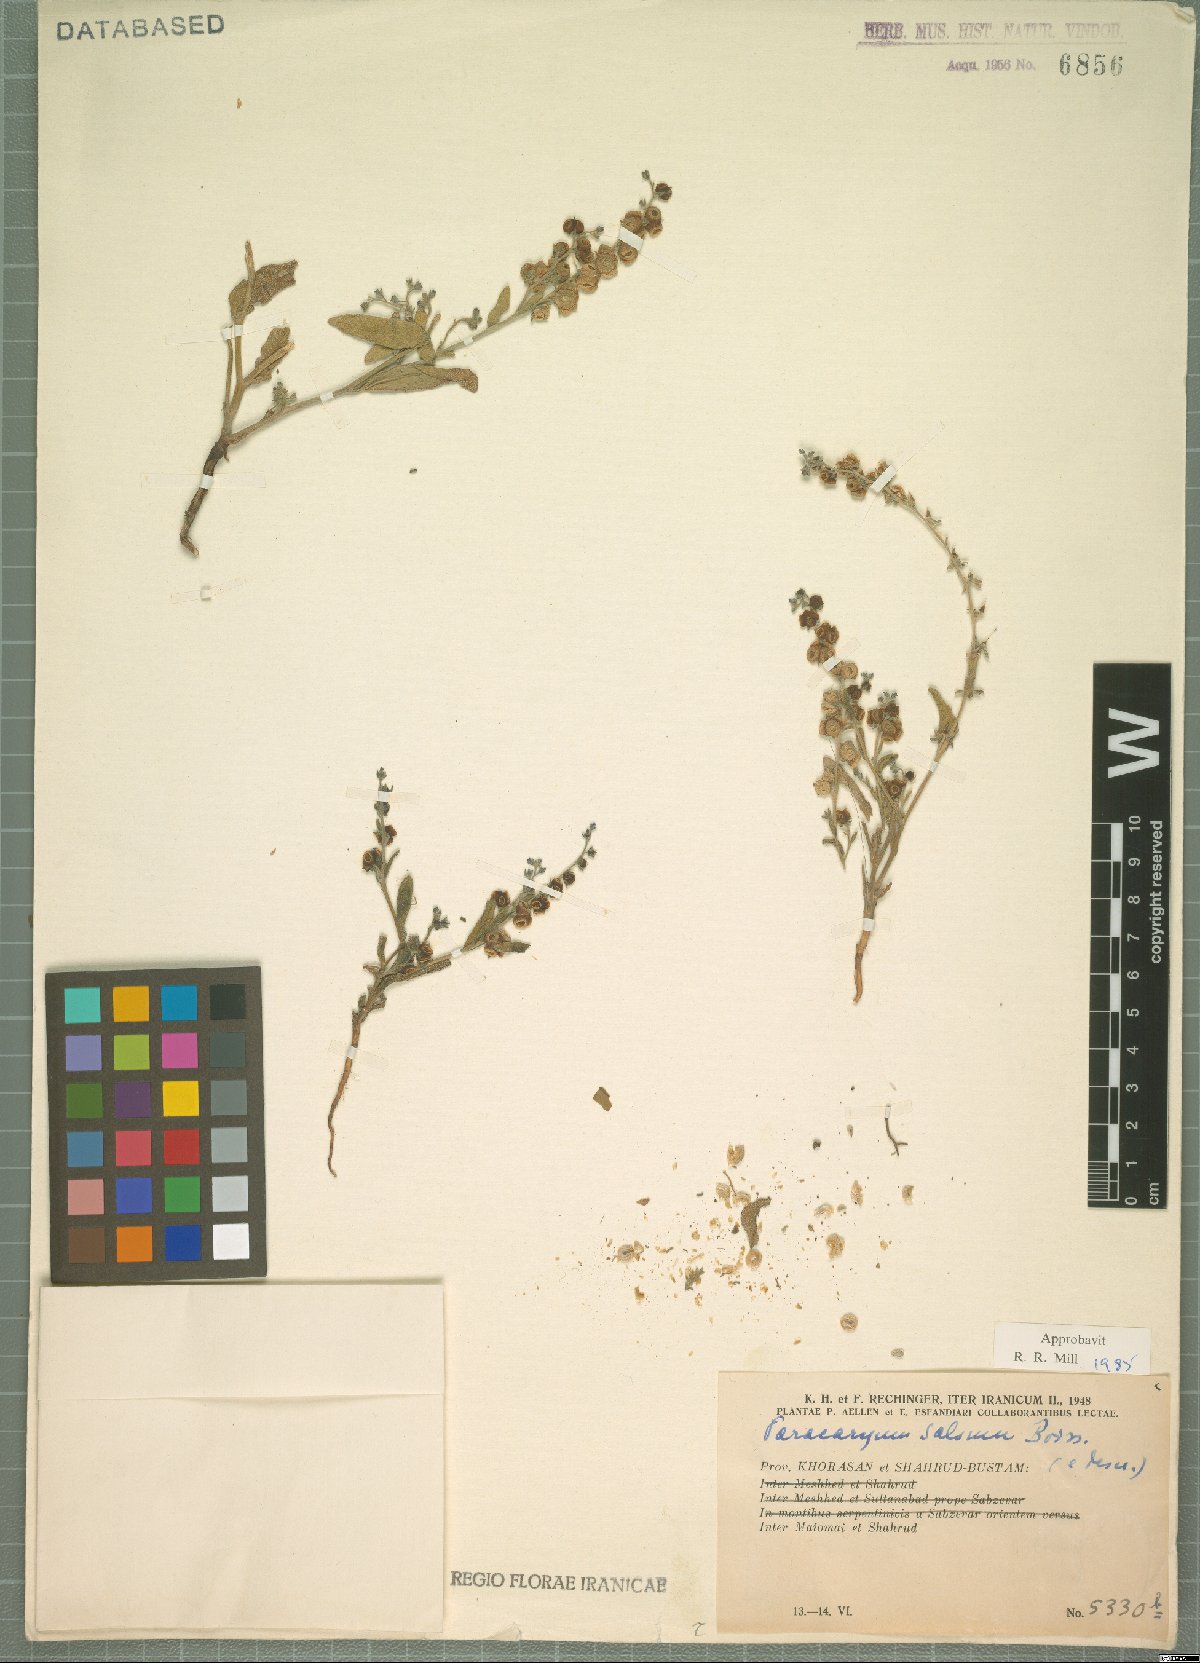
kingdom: Plantae
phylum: Tracheophyta
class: Magnoliopsida
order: Boraginales
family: Boraginaceae
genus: Microparacaryum
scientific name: Microparacaryum salsum
